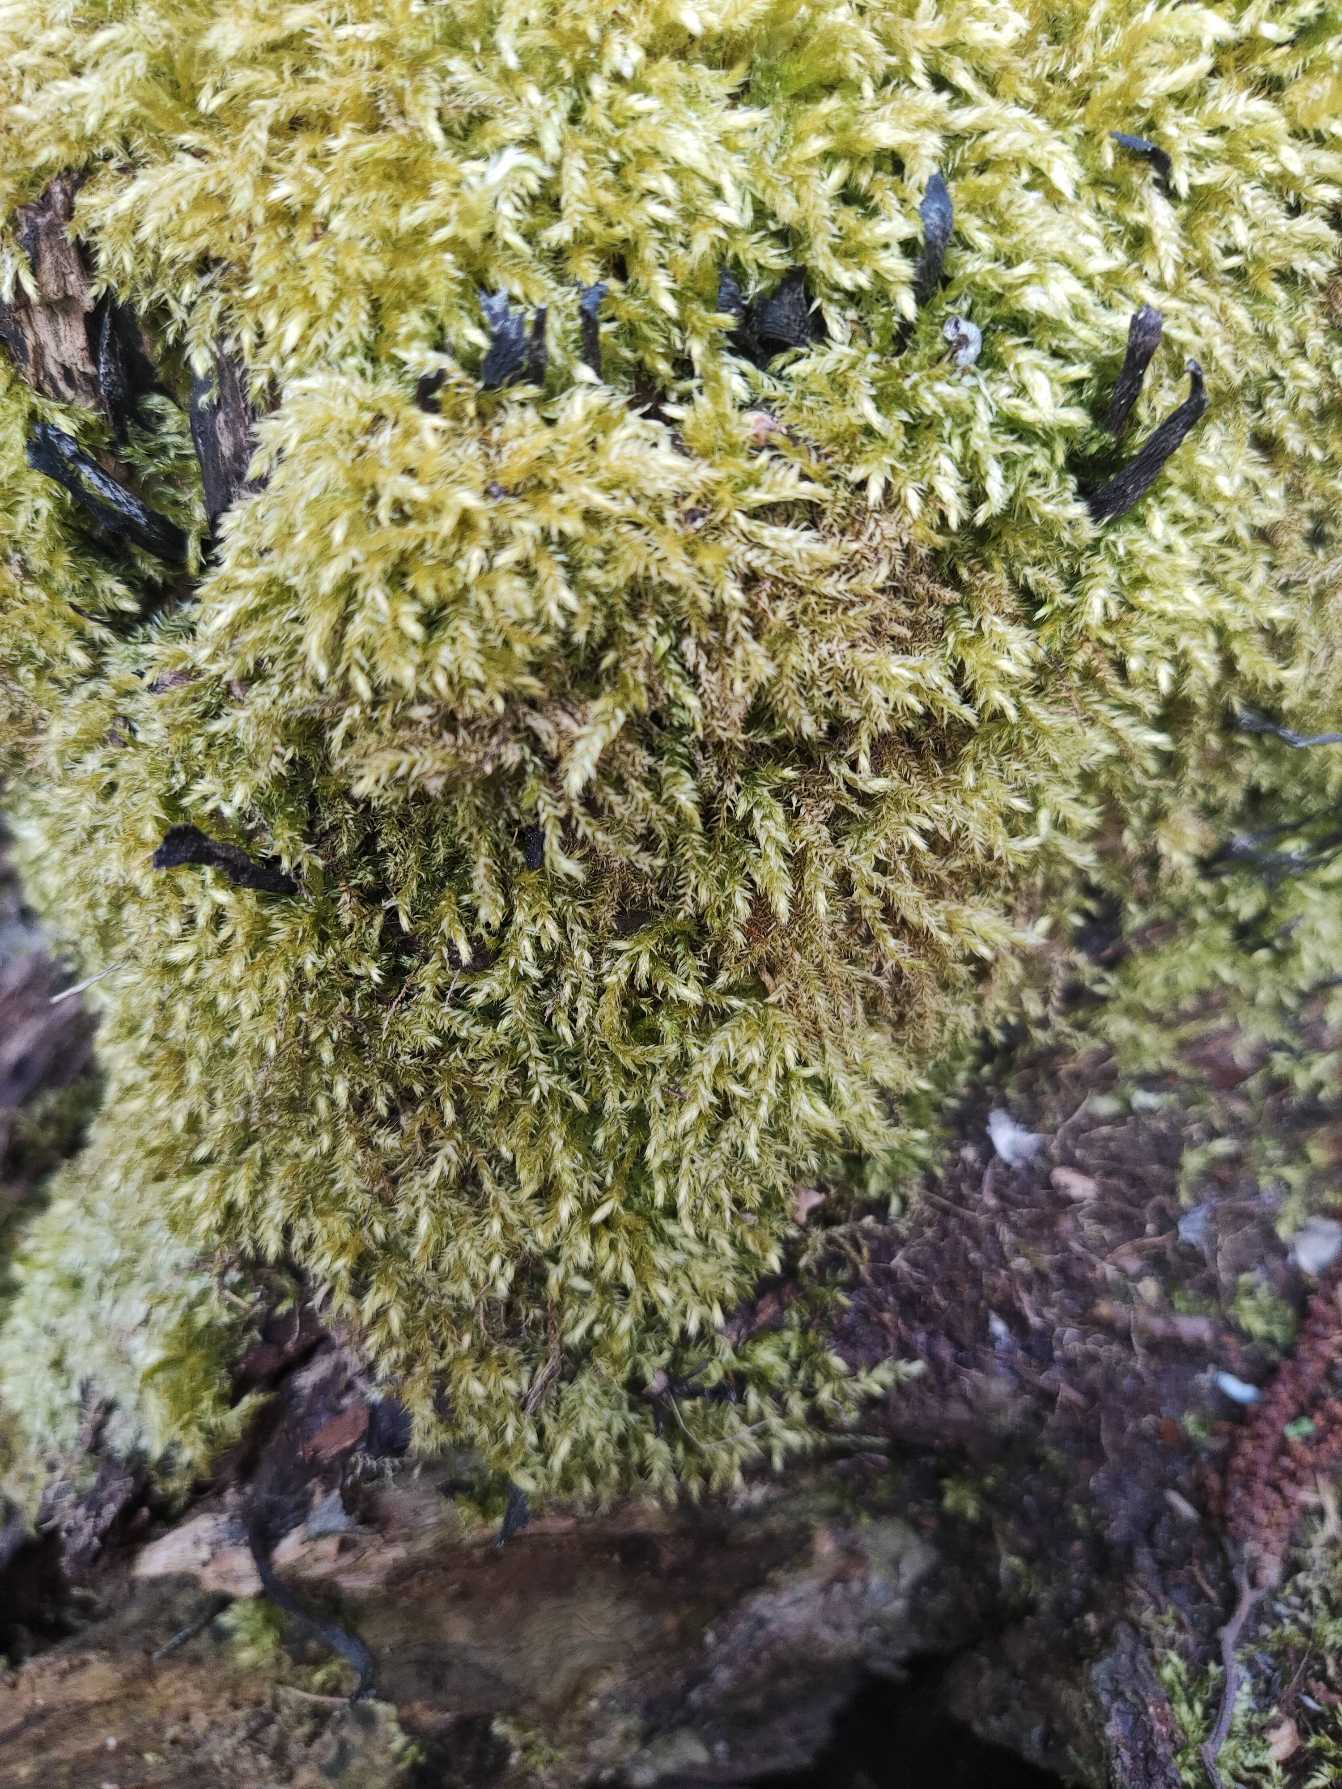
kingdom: Plantae
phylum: Bryophyta
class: Bryopsida
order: Hypnales
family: Brachytheciaceae
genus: Brachythecium
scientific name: Brachythecium rutabulum
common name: Almindelig kortkapsel
